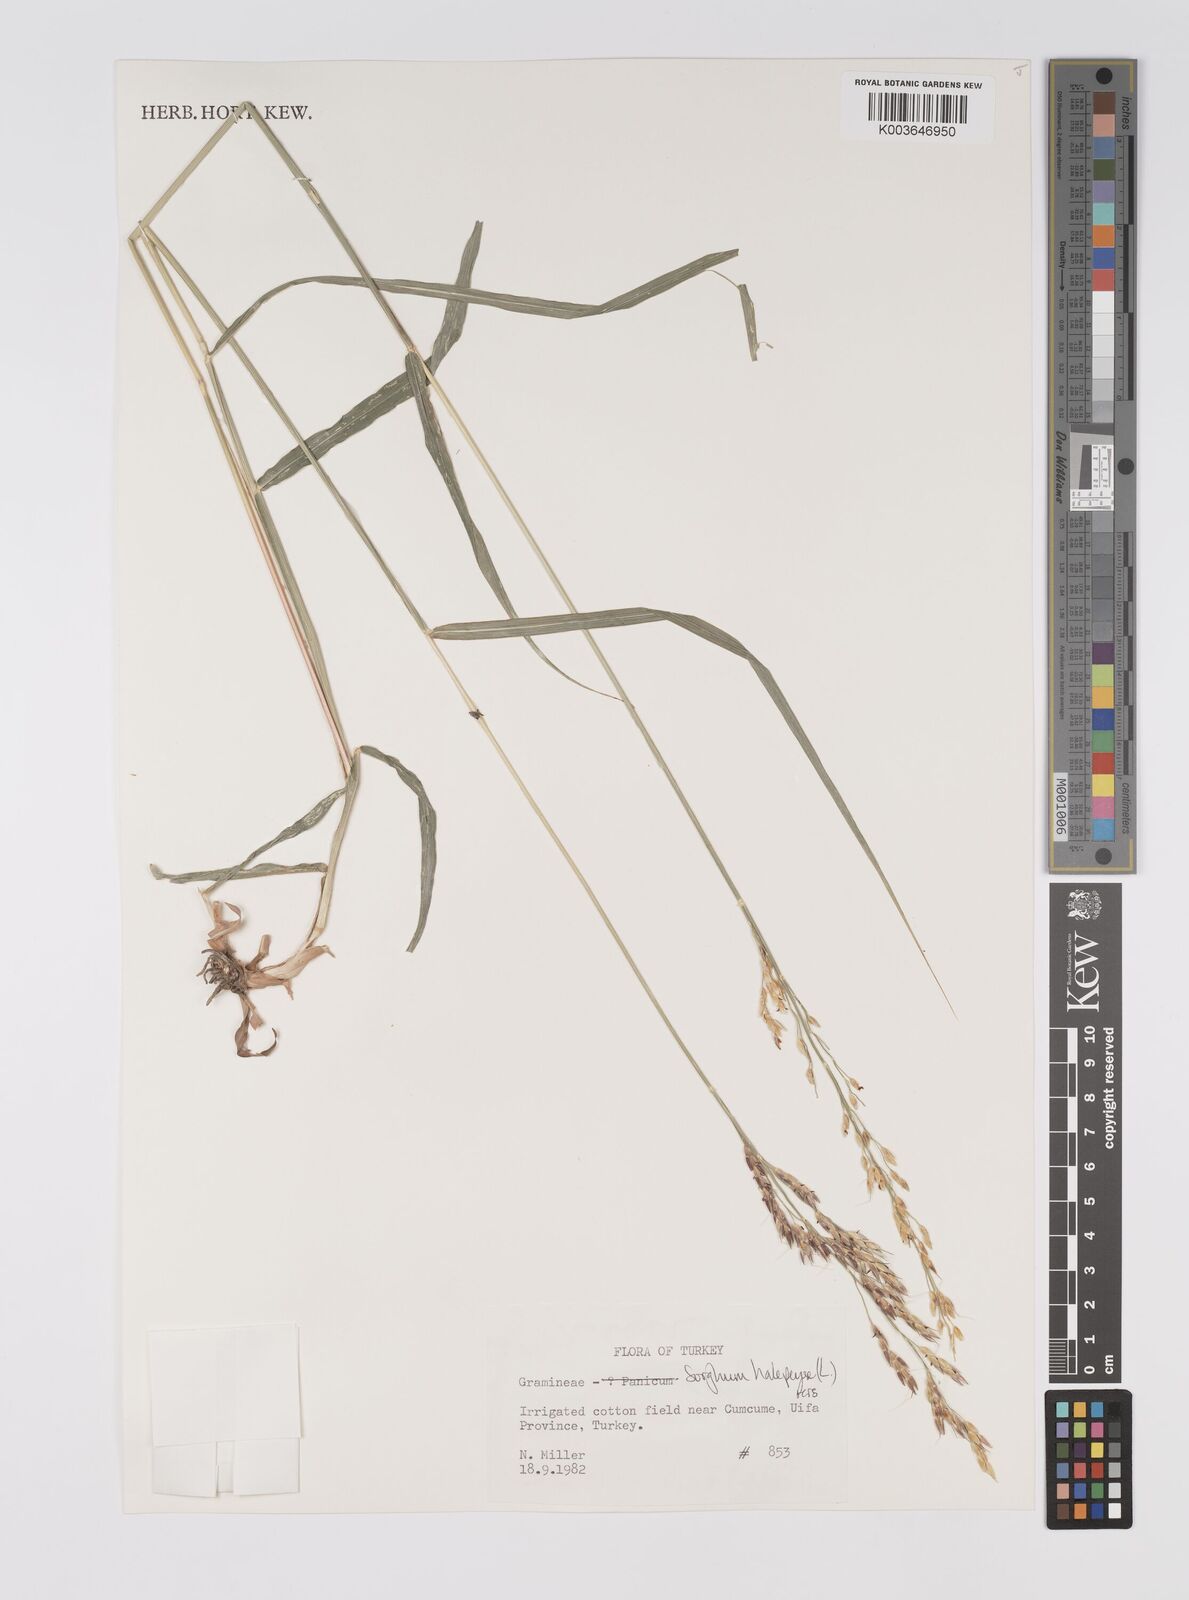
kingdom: Plantae
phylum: Tracheophyta
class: Liliopsida
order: Poales
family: Poaceae
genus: Sorghum
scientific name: Sorghum halepense
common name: Johnson-grass
